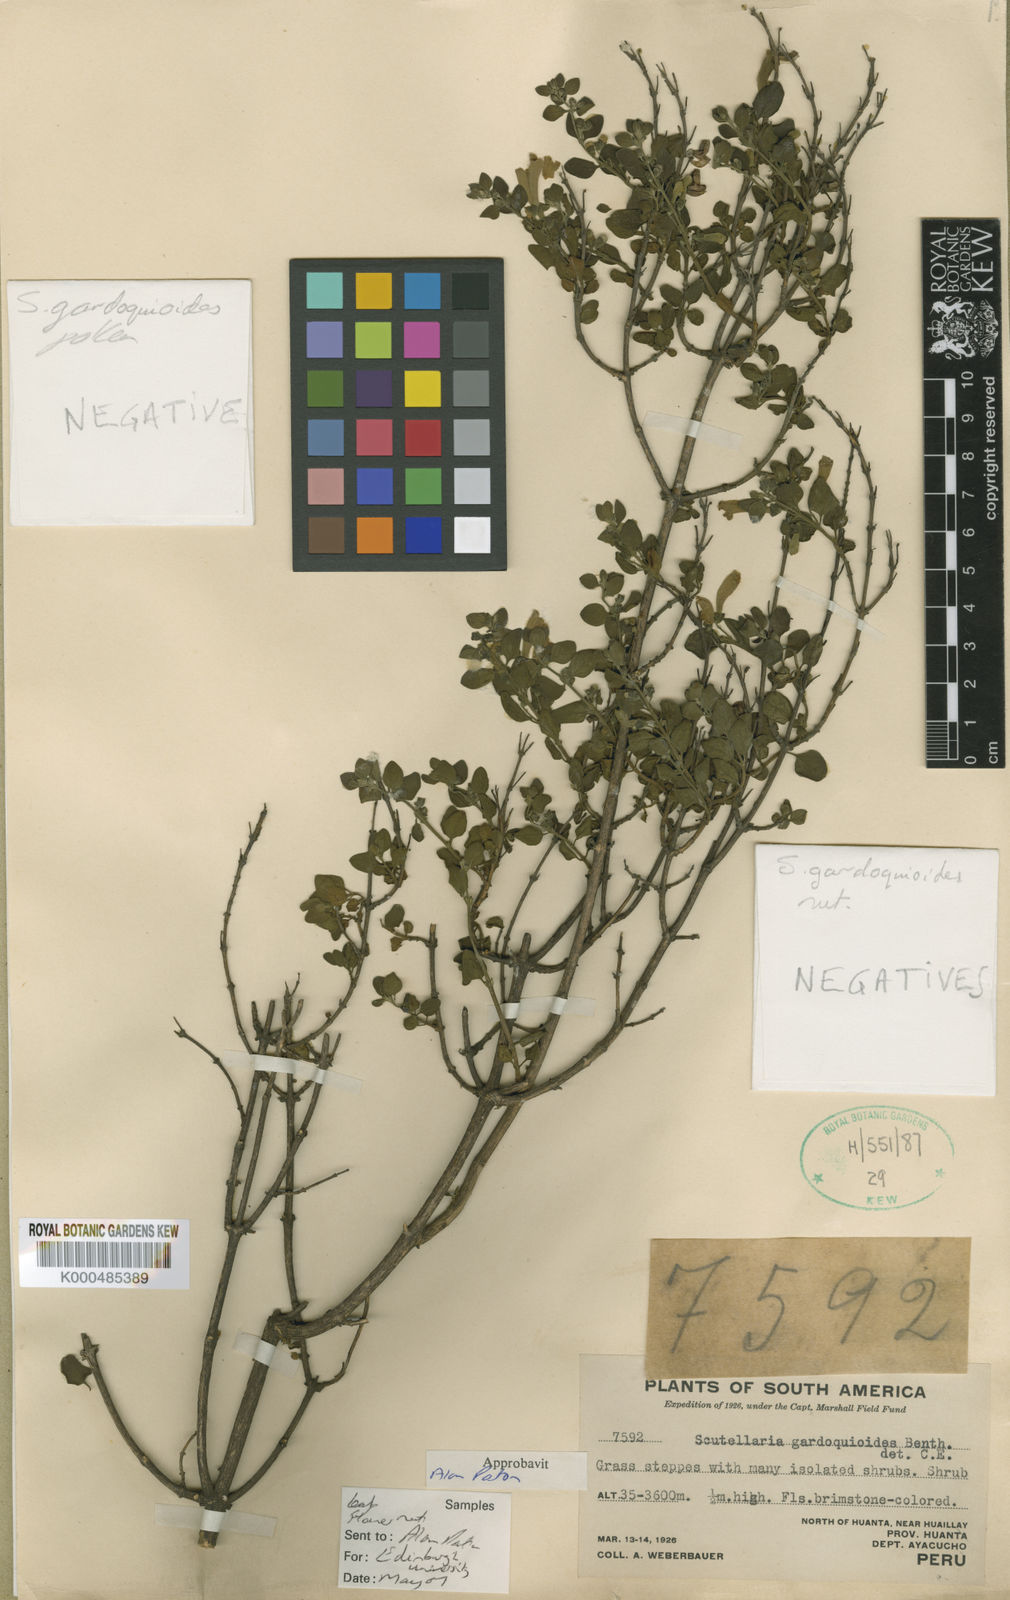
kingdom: Plantae
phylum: Tracheophyta
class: Magnoliopsida
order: Lamiales
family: Lamiaceae
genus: Scutellaria
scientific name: Scutellaria gardoquioides
